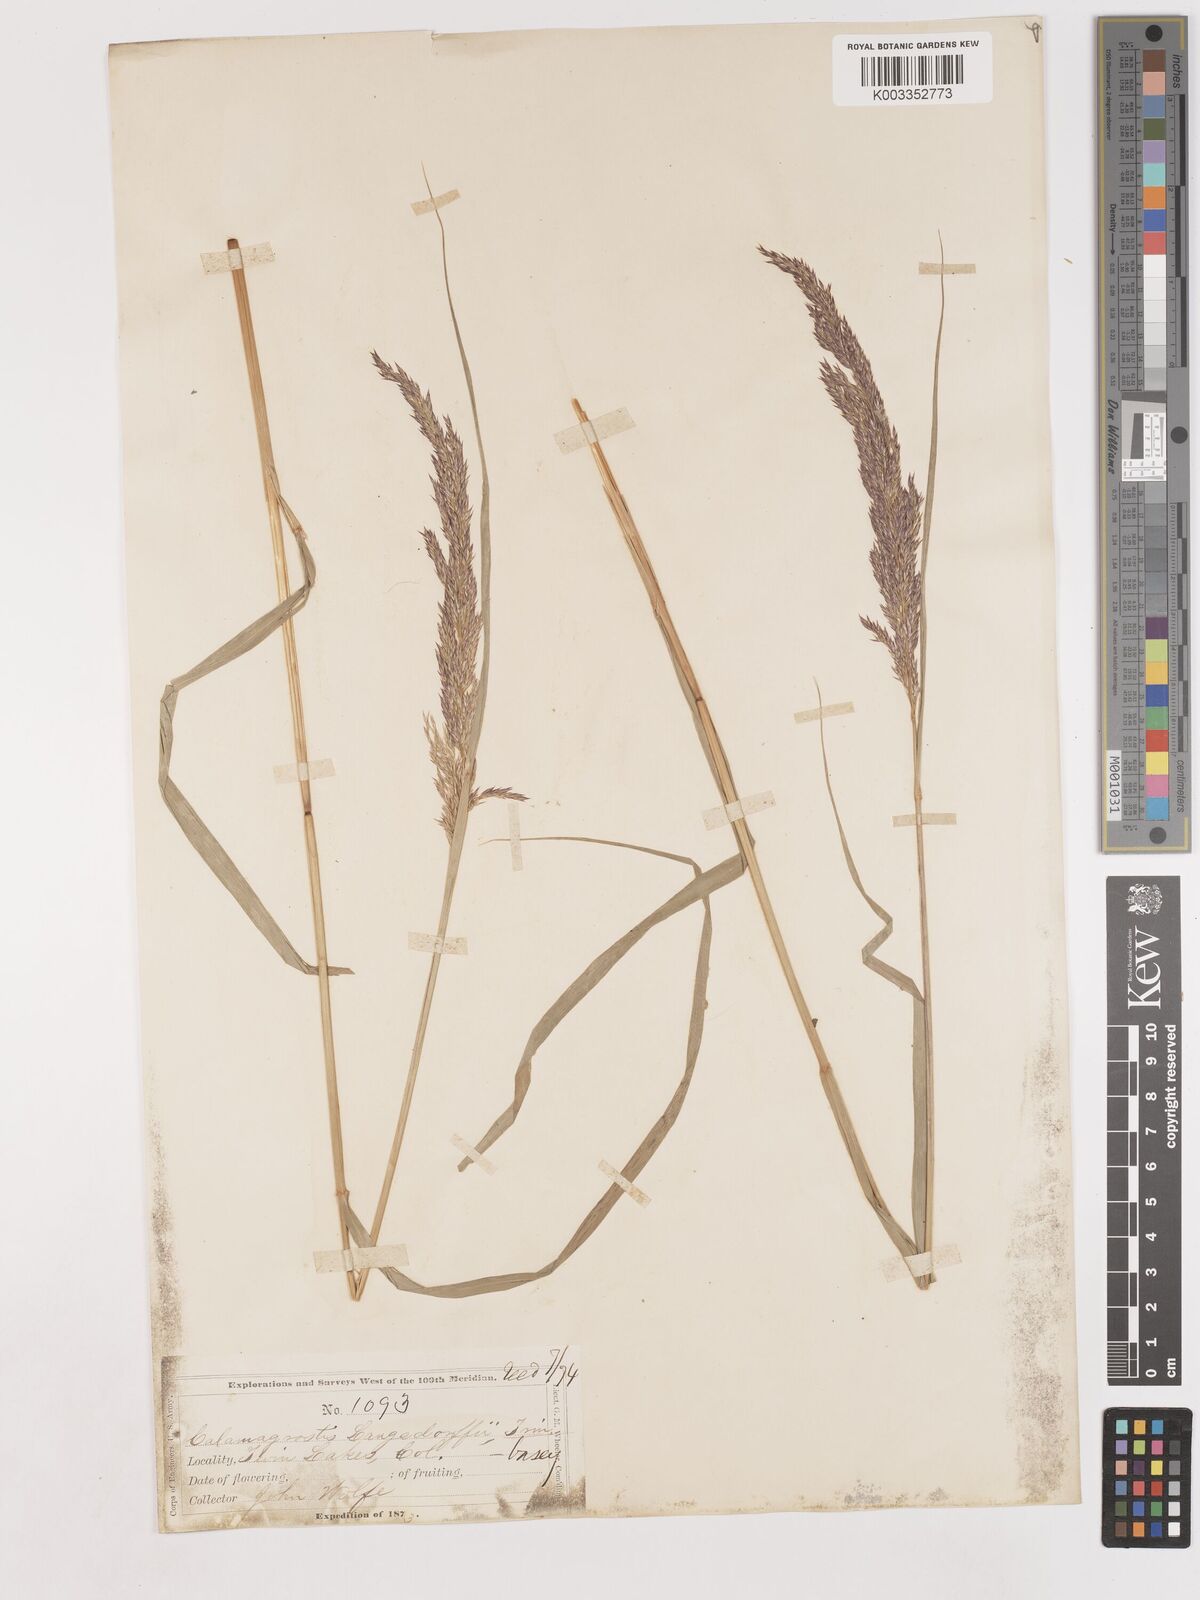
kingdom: Plantae
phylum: Tracheophyta
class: Liliopsida
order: Poales
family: Poaceae
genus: Calamagrostis
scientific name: Calamagrostis canadensis
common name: Canada bluejoint
